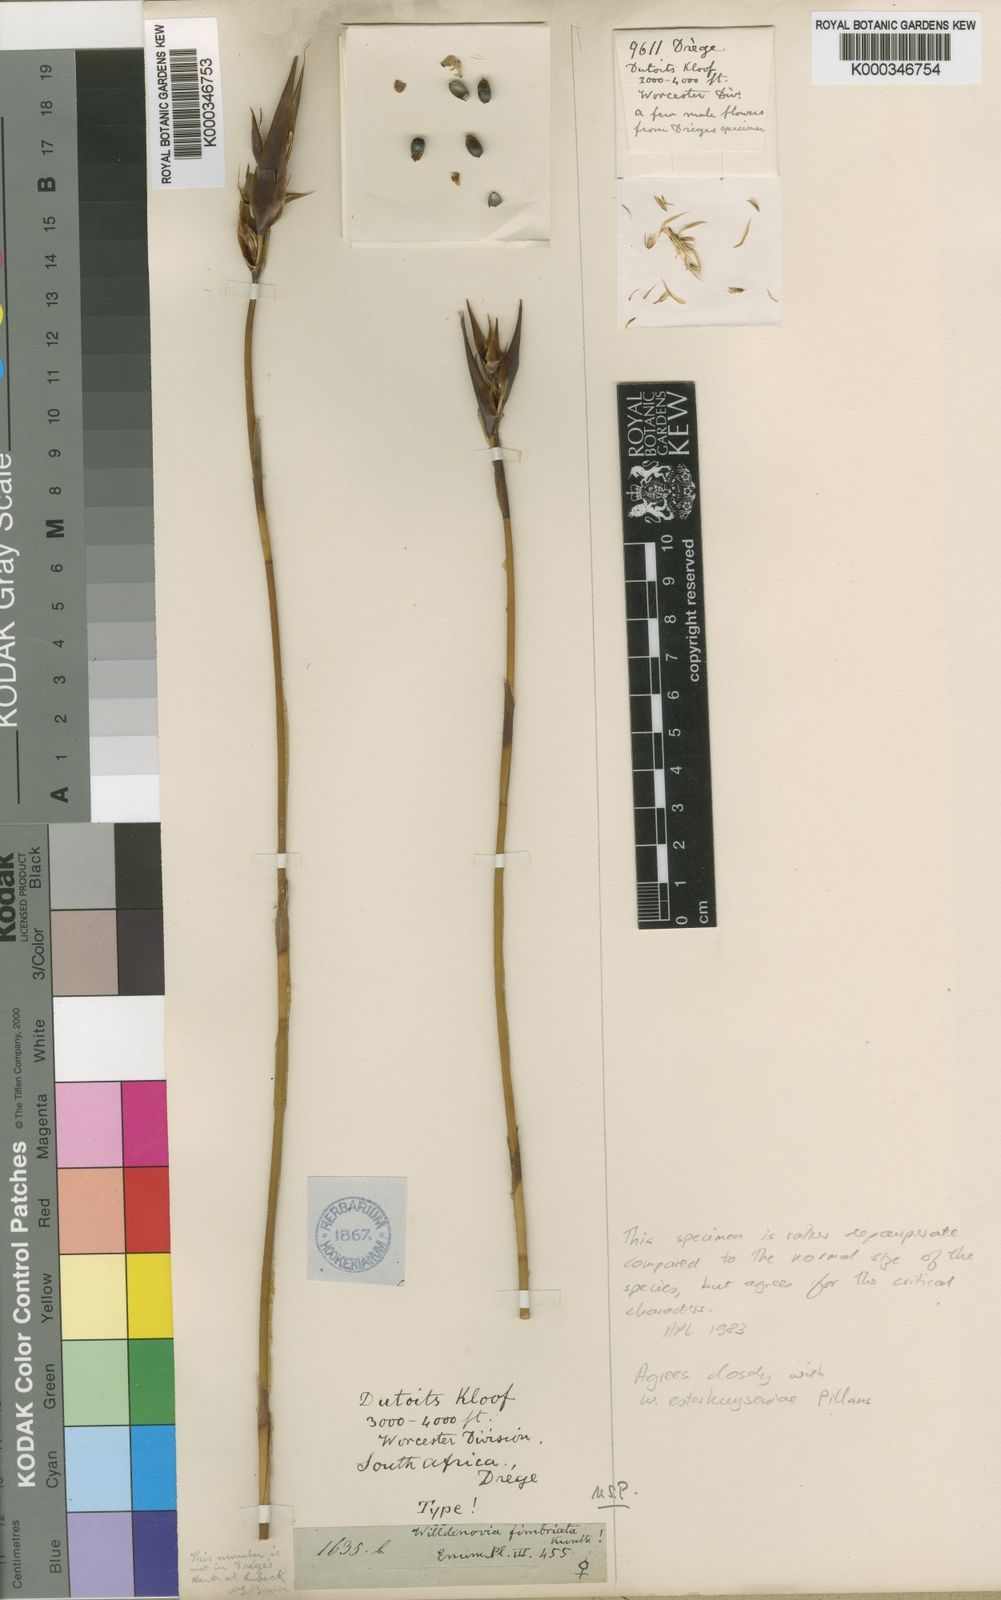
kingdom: Plantae
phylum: Tracheophyta
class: Liliopsida
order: Poales
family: Restionaceae
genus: Ceratocaryum
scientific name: Ceratocaryum fimbriatum
